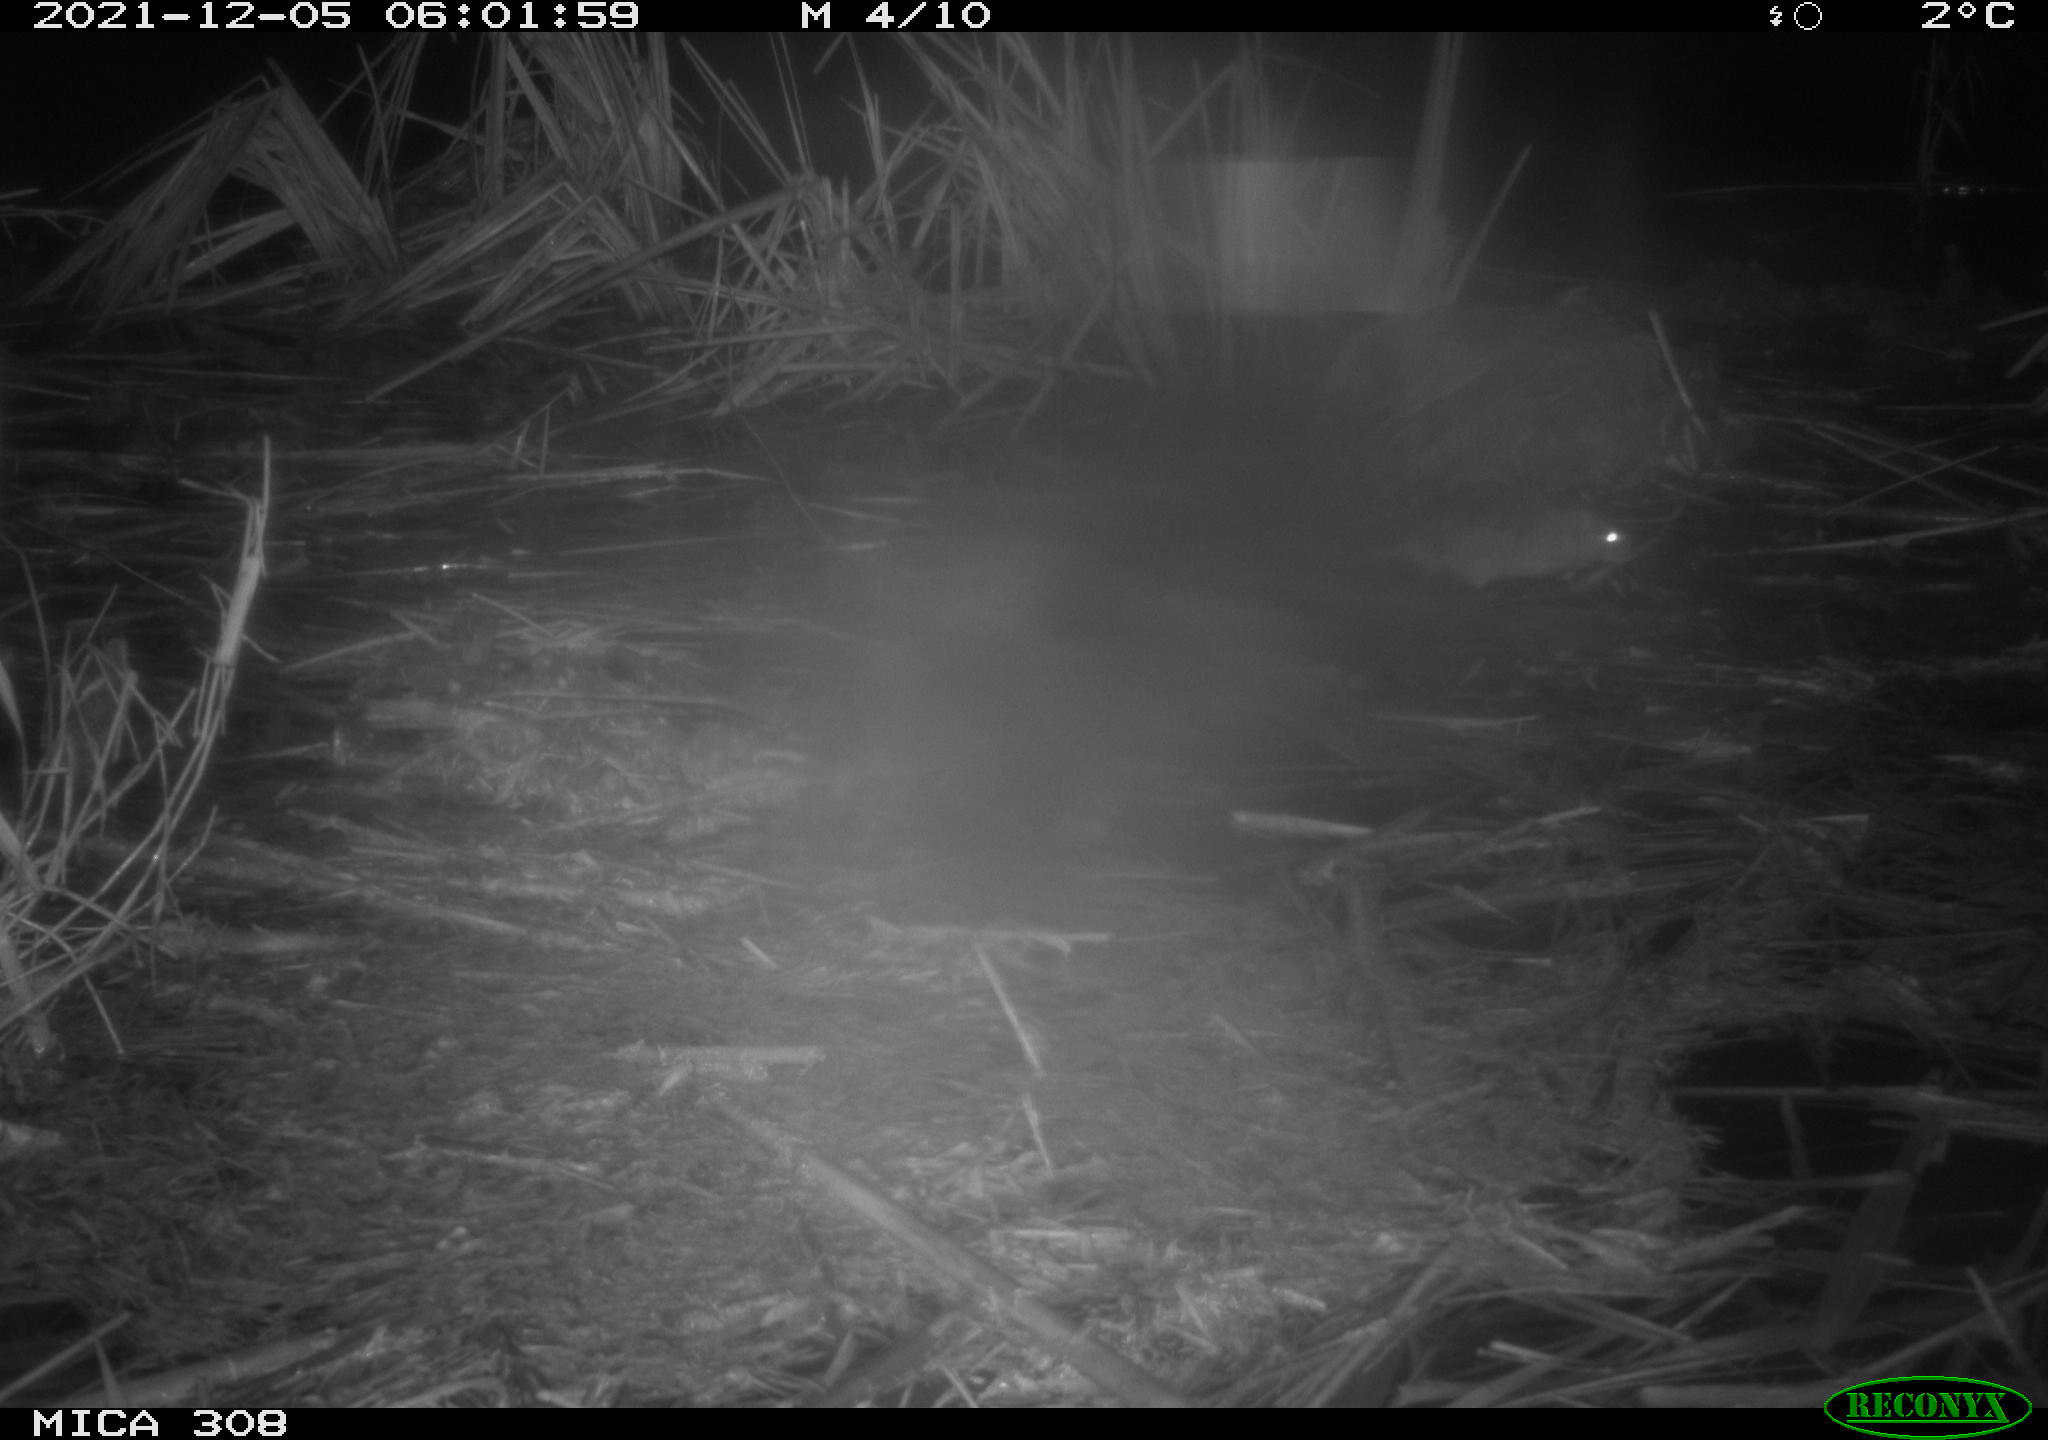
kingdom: Animalia
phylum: Chordata
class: Mammalia
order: Rodentia
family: Muridae
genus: Rattus
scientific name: Rattus norvegicus
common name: Brown rat
